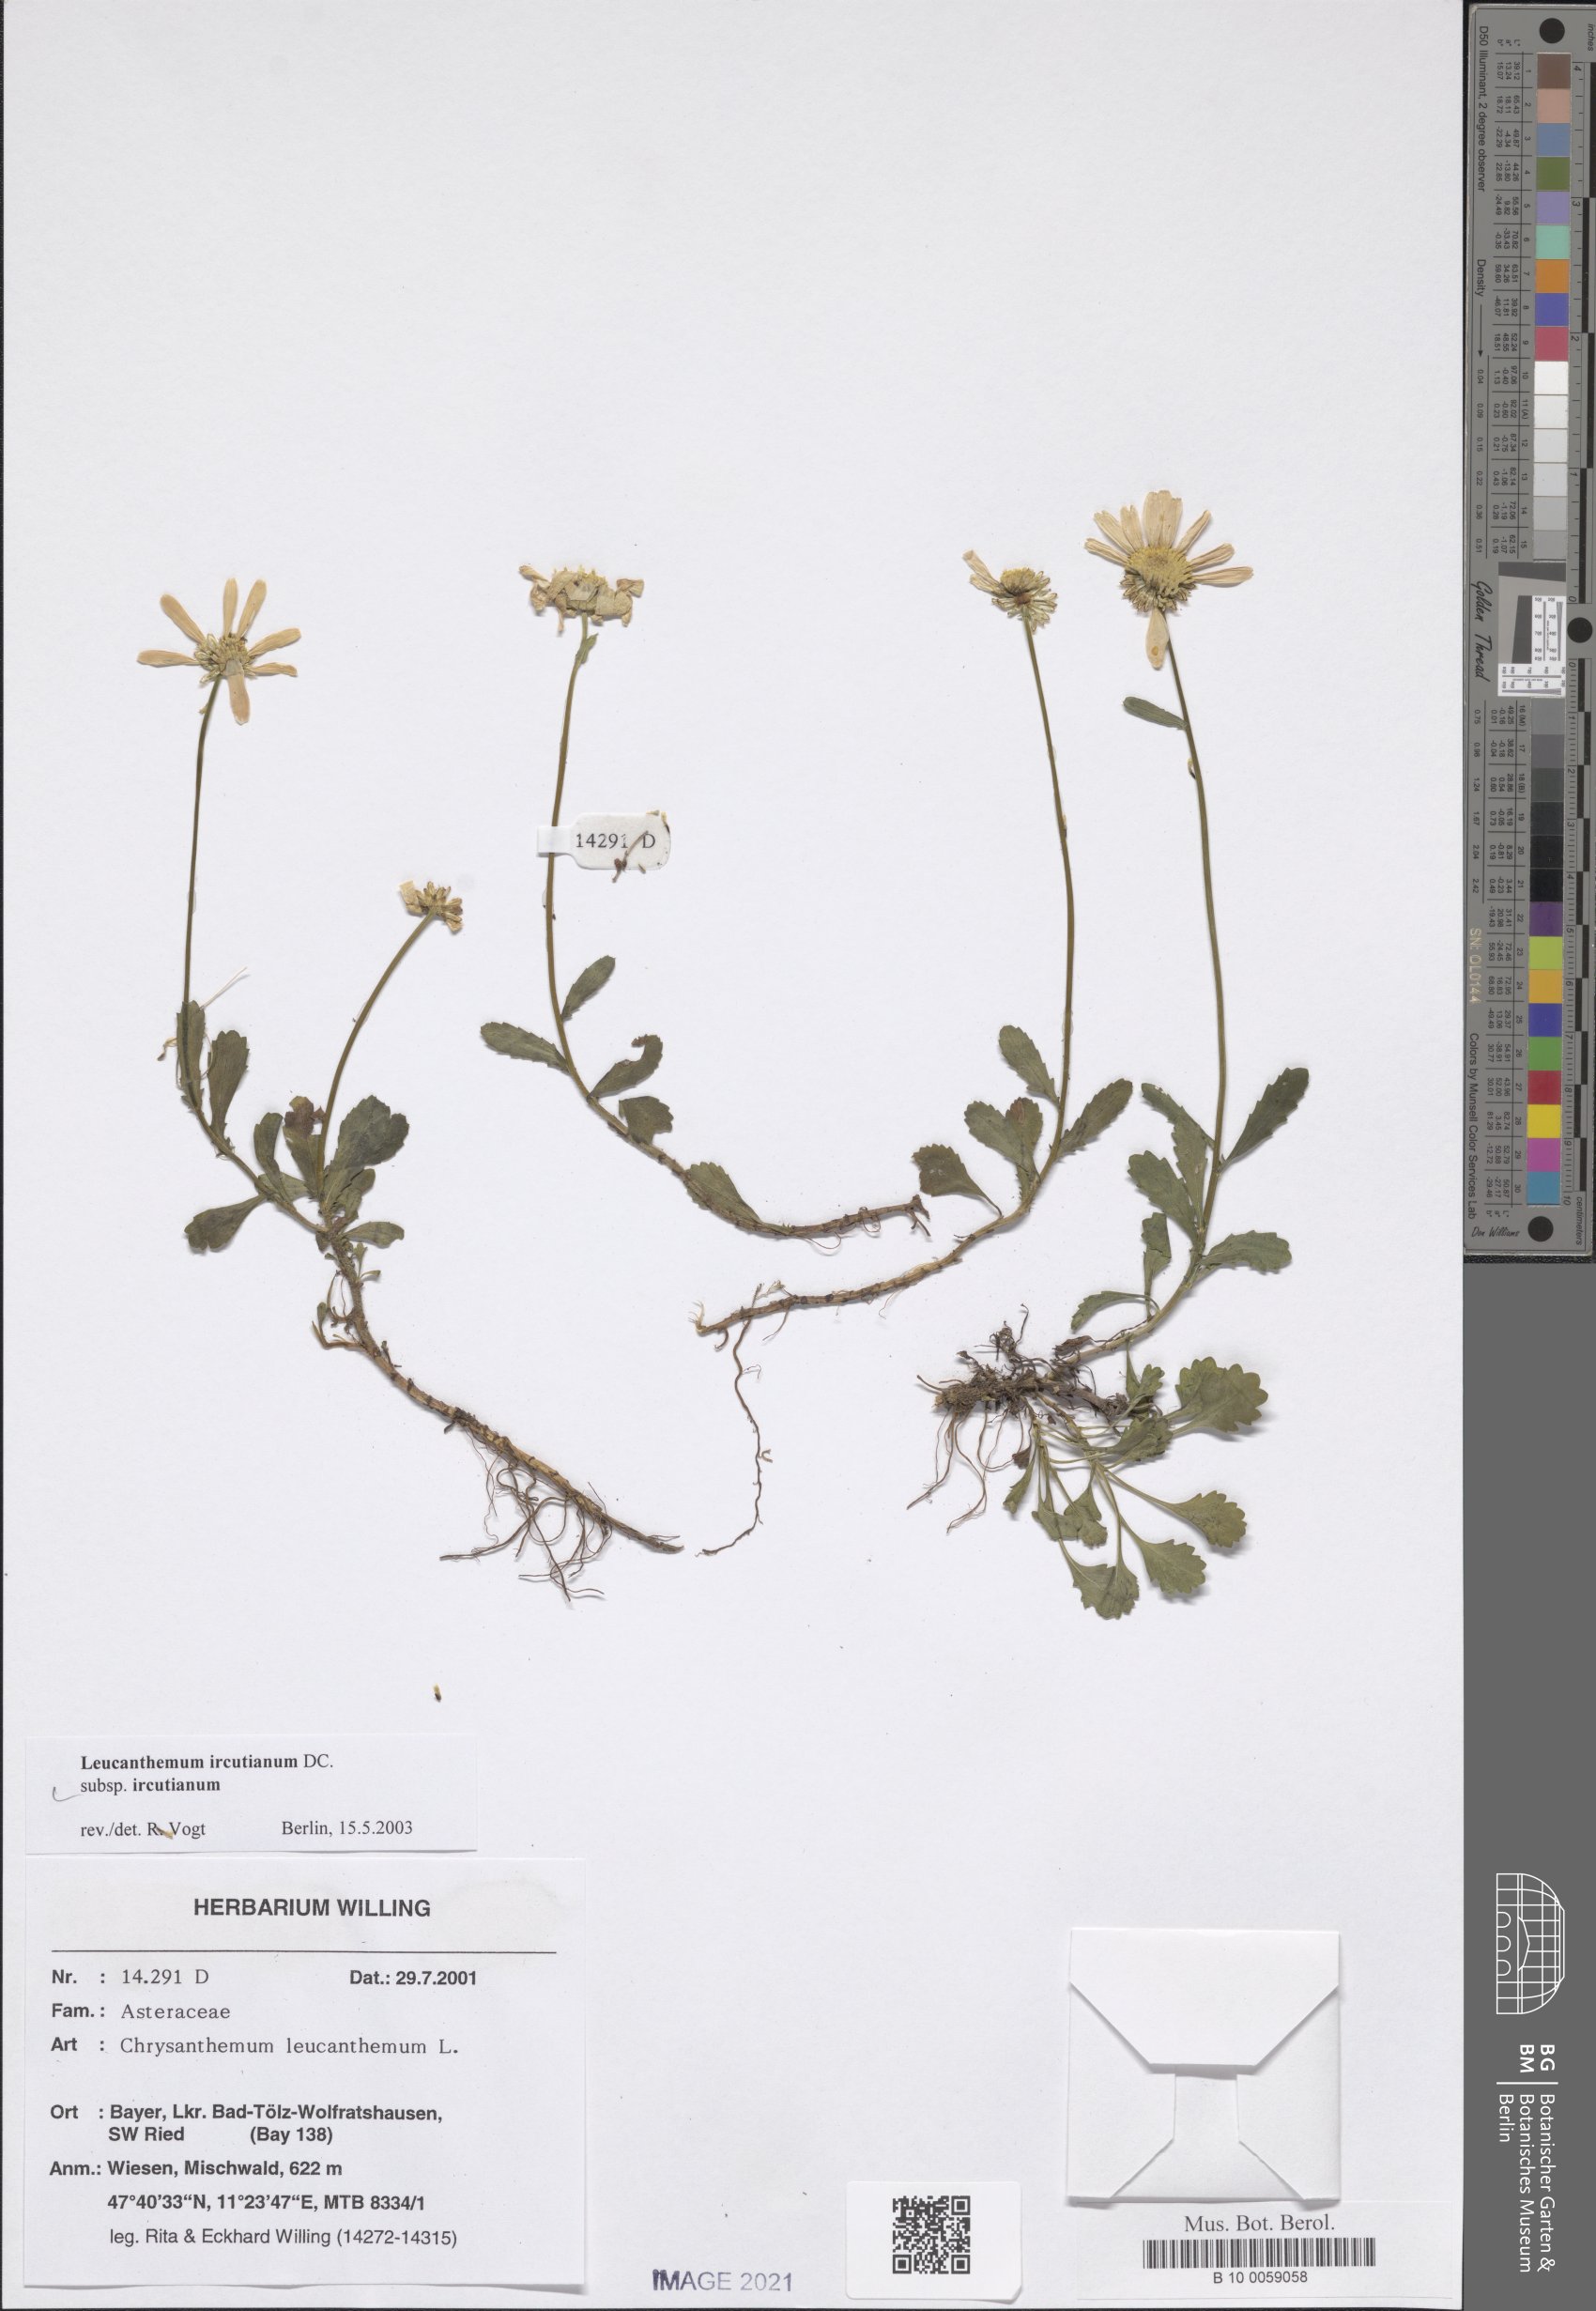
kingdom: Plantae
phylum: Tracheophyta
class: Magnoliopsida
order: Asterales
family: Asteraceae
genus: Leucanthemum
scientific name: Leucanthemum ircutianum
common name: Daisy
